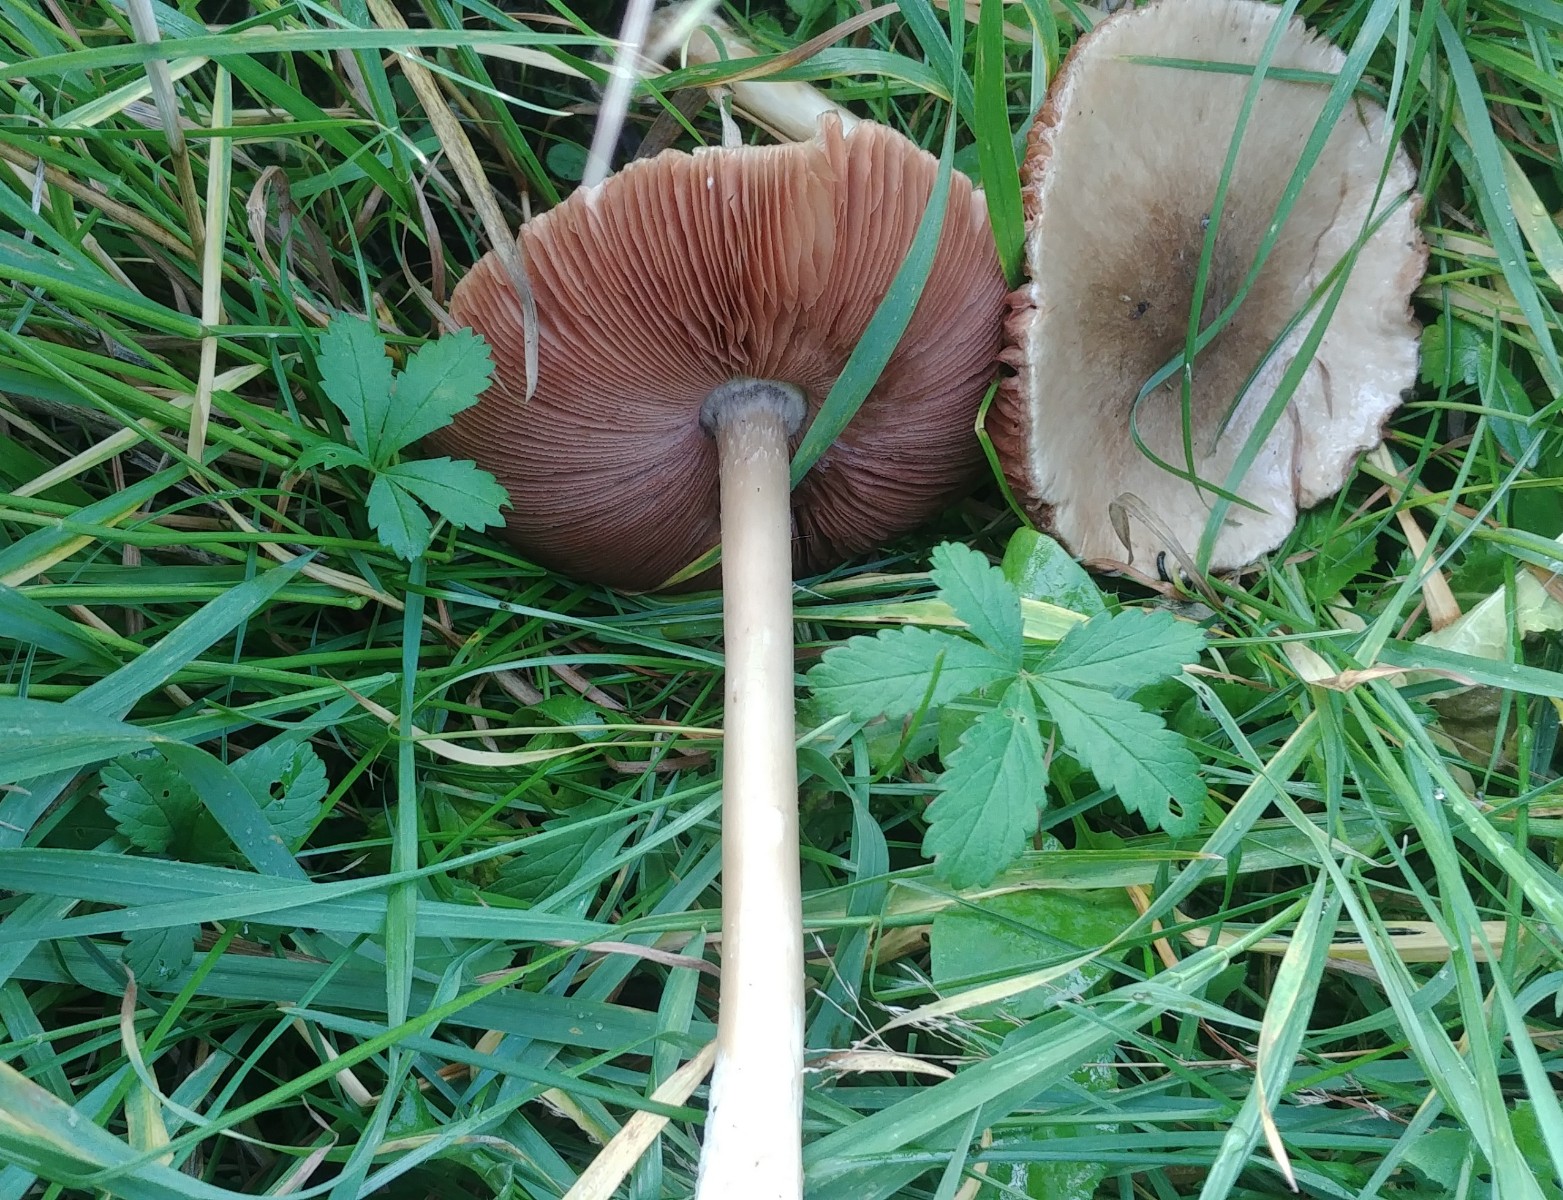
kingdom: Fungi
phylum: Basidiomycota
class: Agaricomycetes
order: Agaricales
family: Pluteaceae
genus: Volvopluteus
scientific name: Volvopluteus gloiocephalus
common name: høj posesvamp
